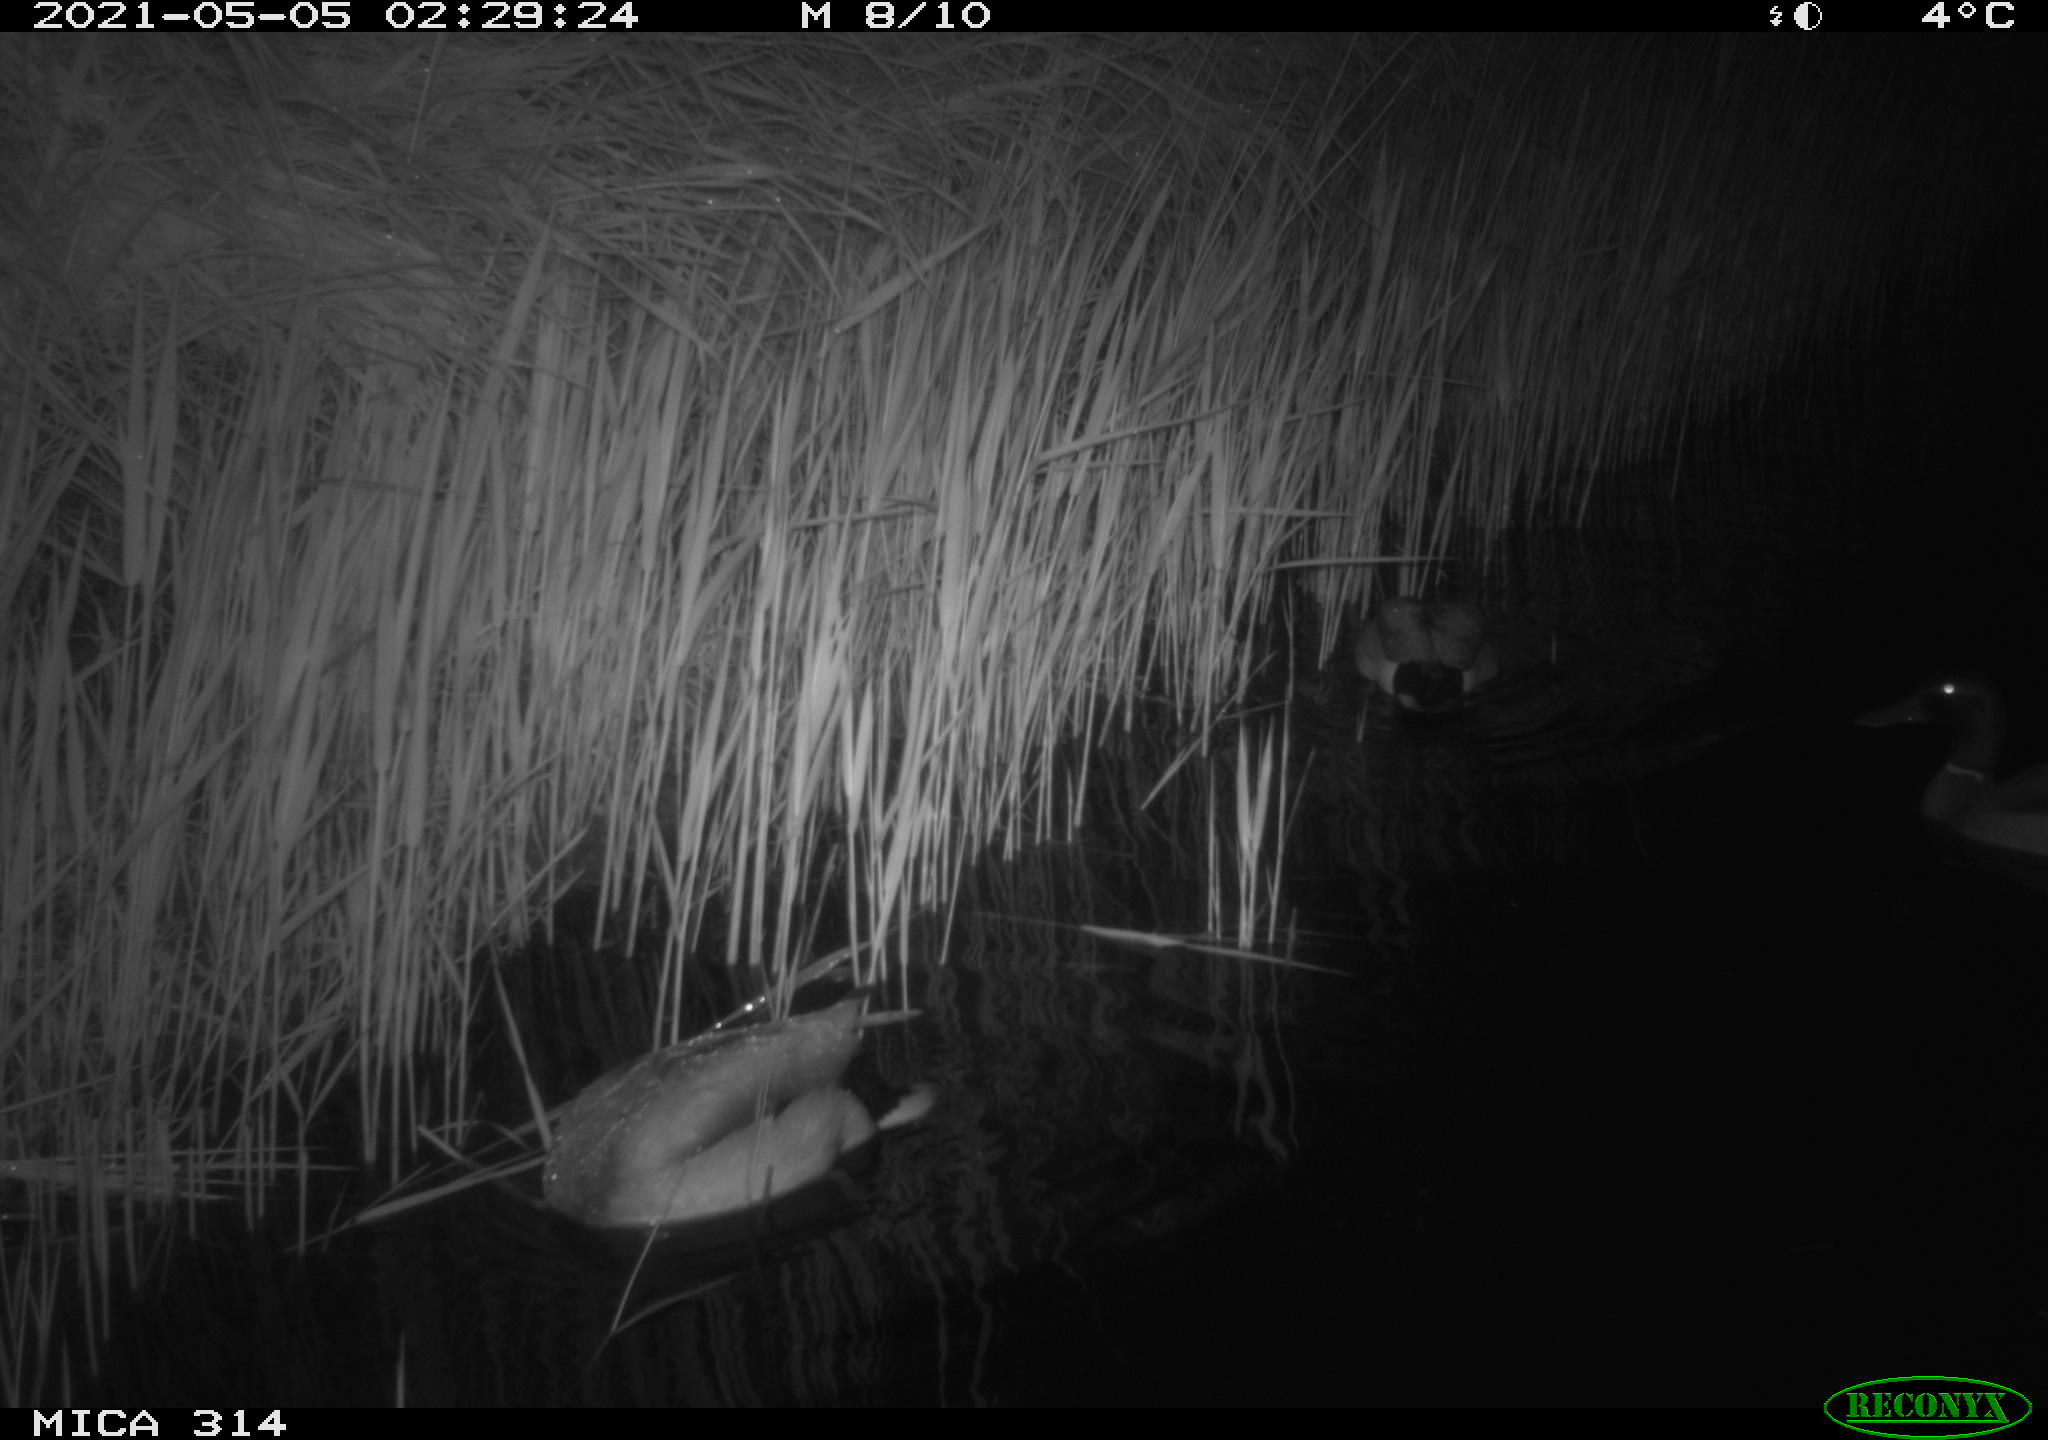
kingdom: Animalia
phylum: Chordata
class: Aves
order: Anseriformes
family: Anatidae
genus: Anas
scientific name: Anas platyrhynchos
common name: Mallard
